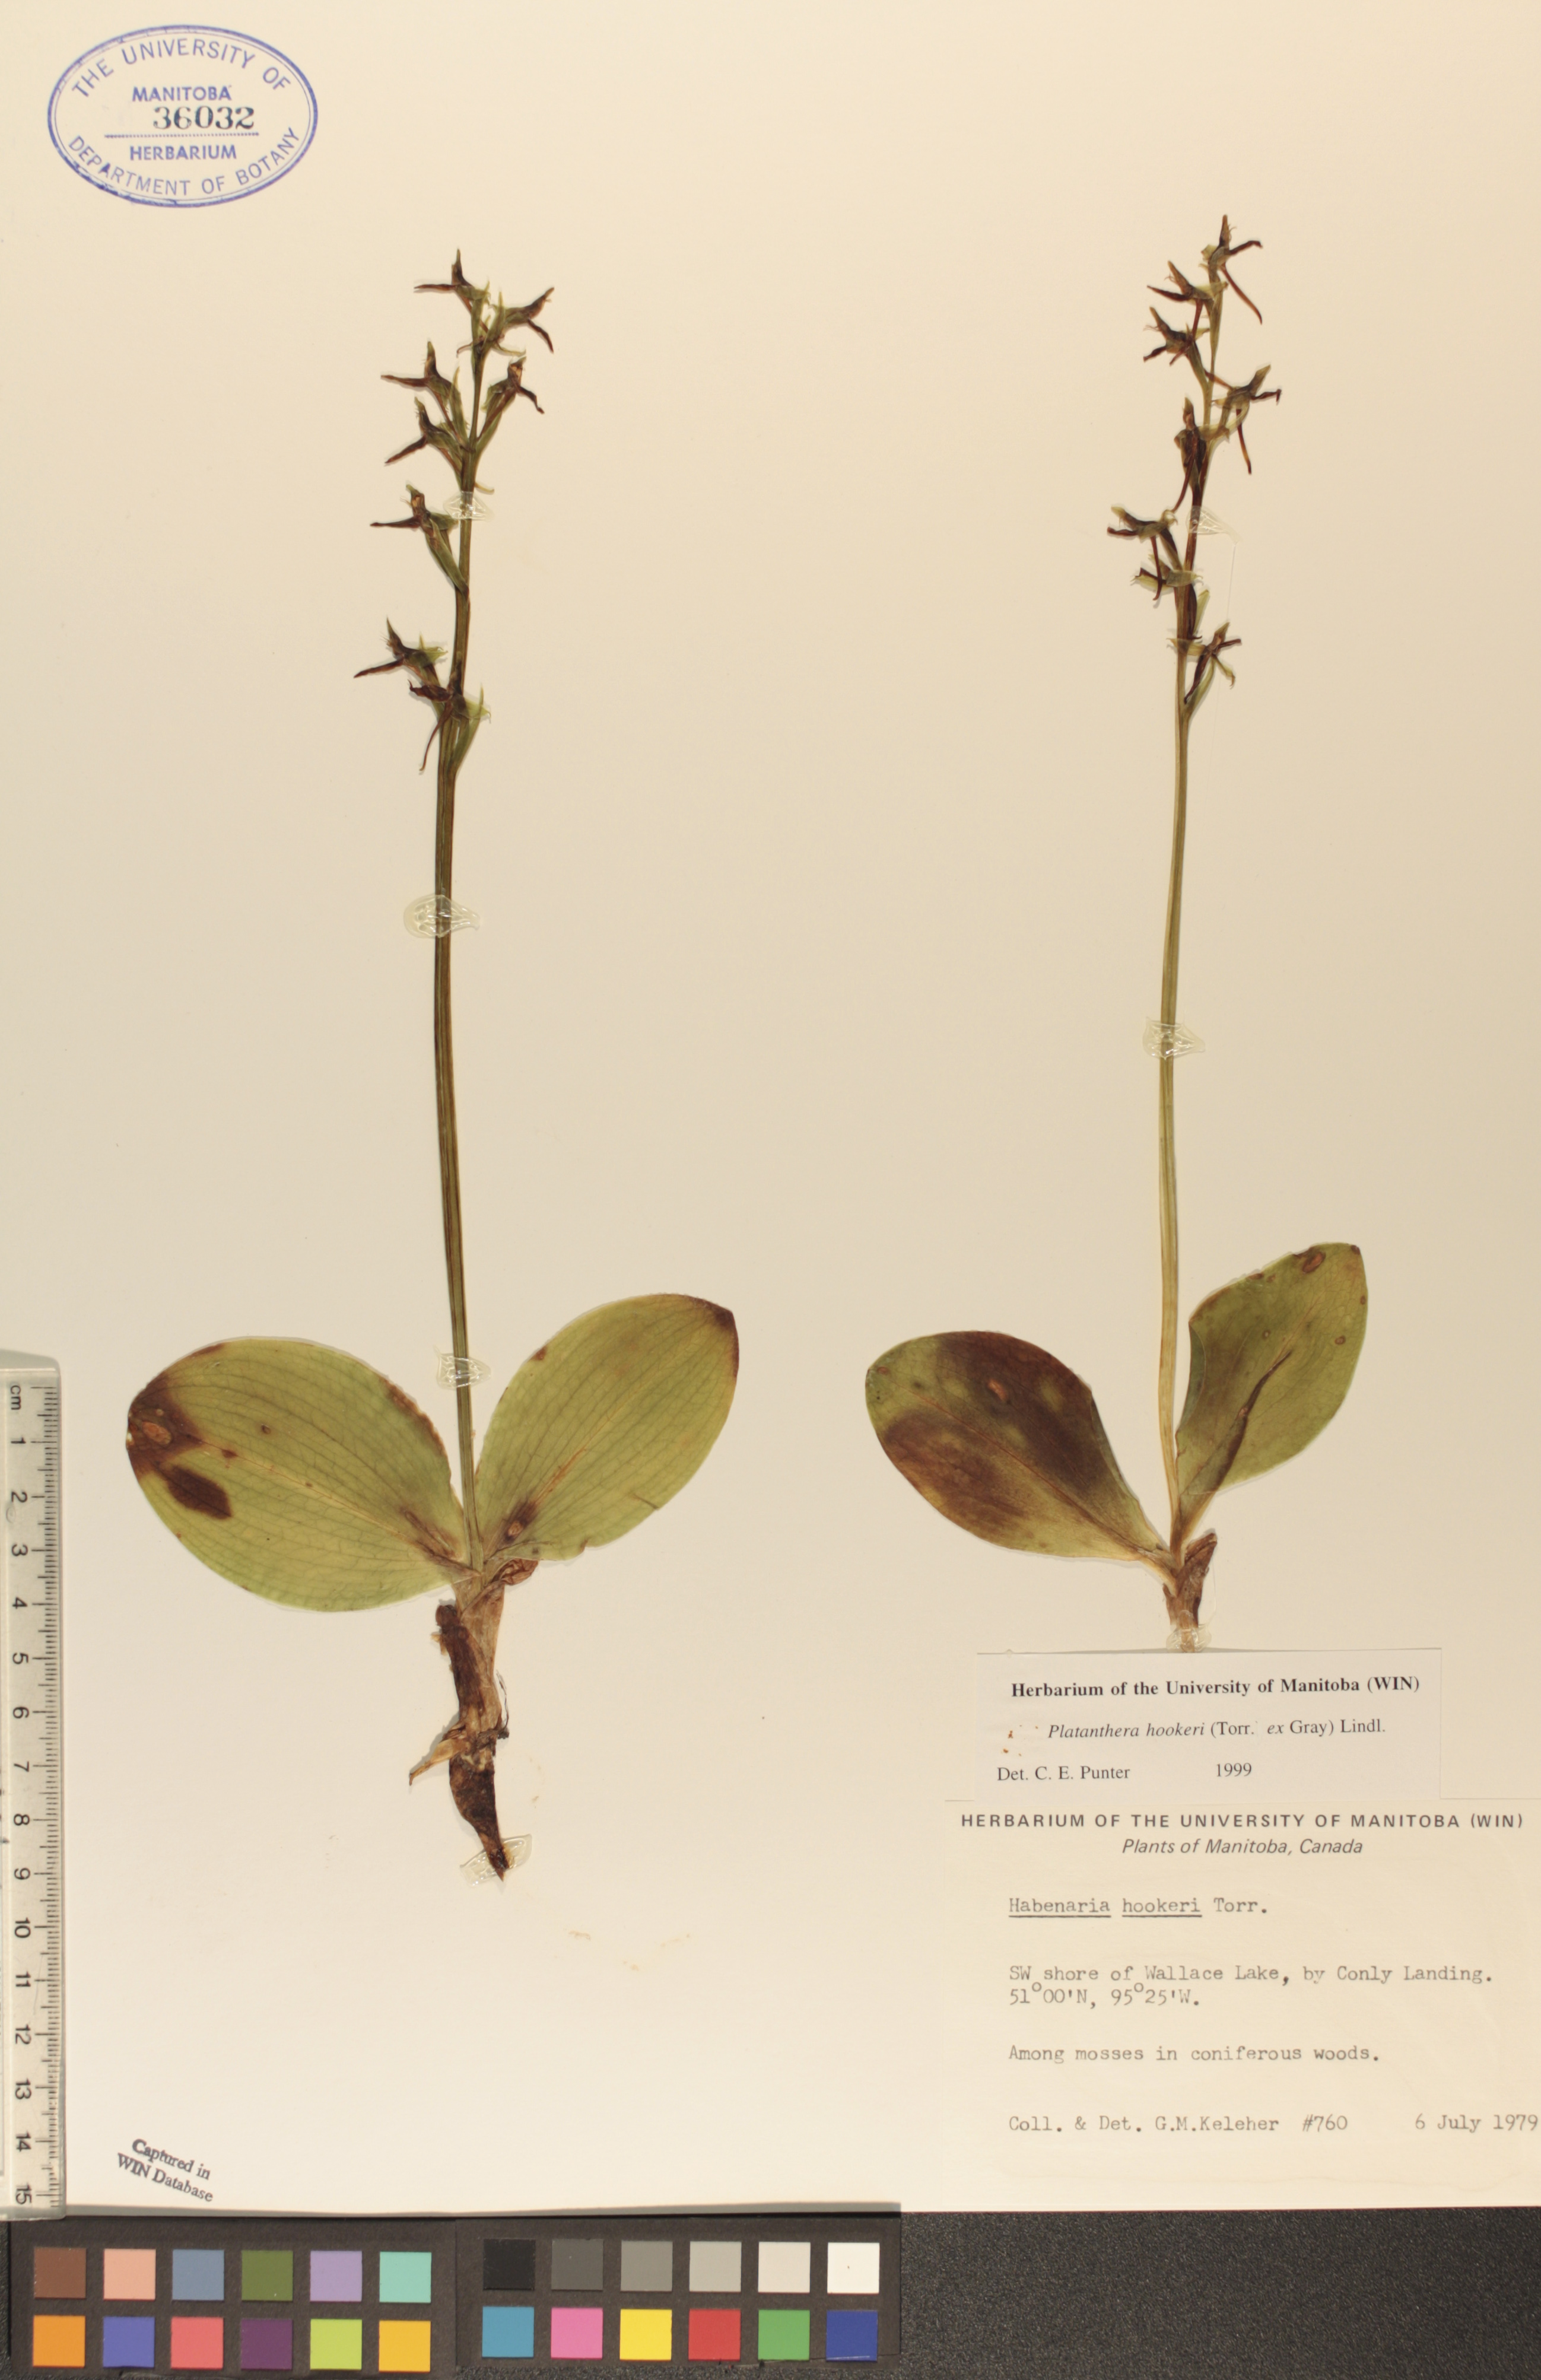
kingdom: Plantae
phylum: Tracheophyta
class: Liliopsida
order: Asparagales
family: Orchidaceae
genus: Platanthera
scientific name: Platanthera hookeri
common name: Hooker's orchid
